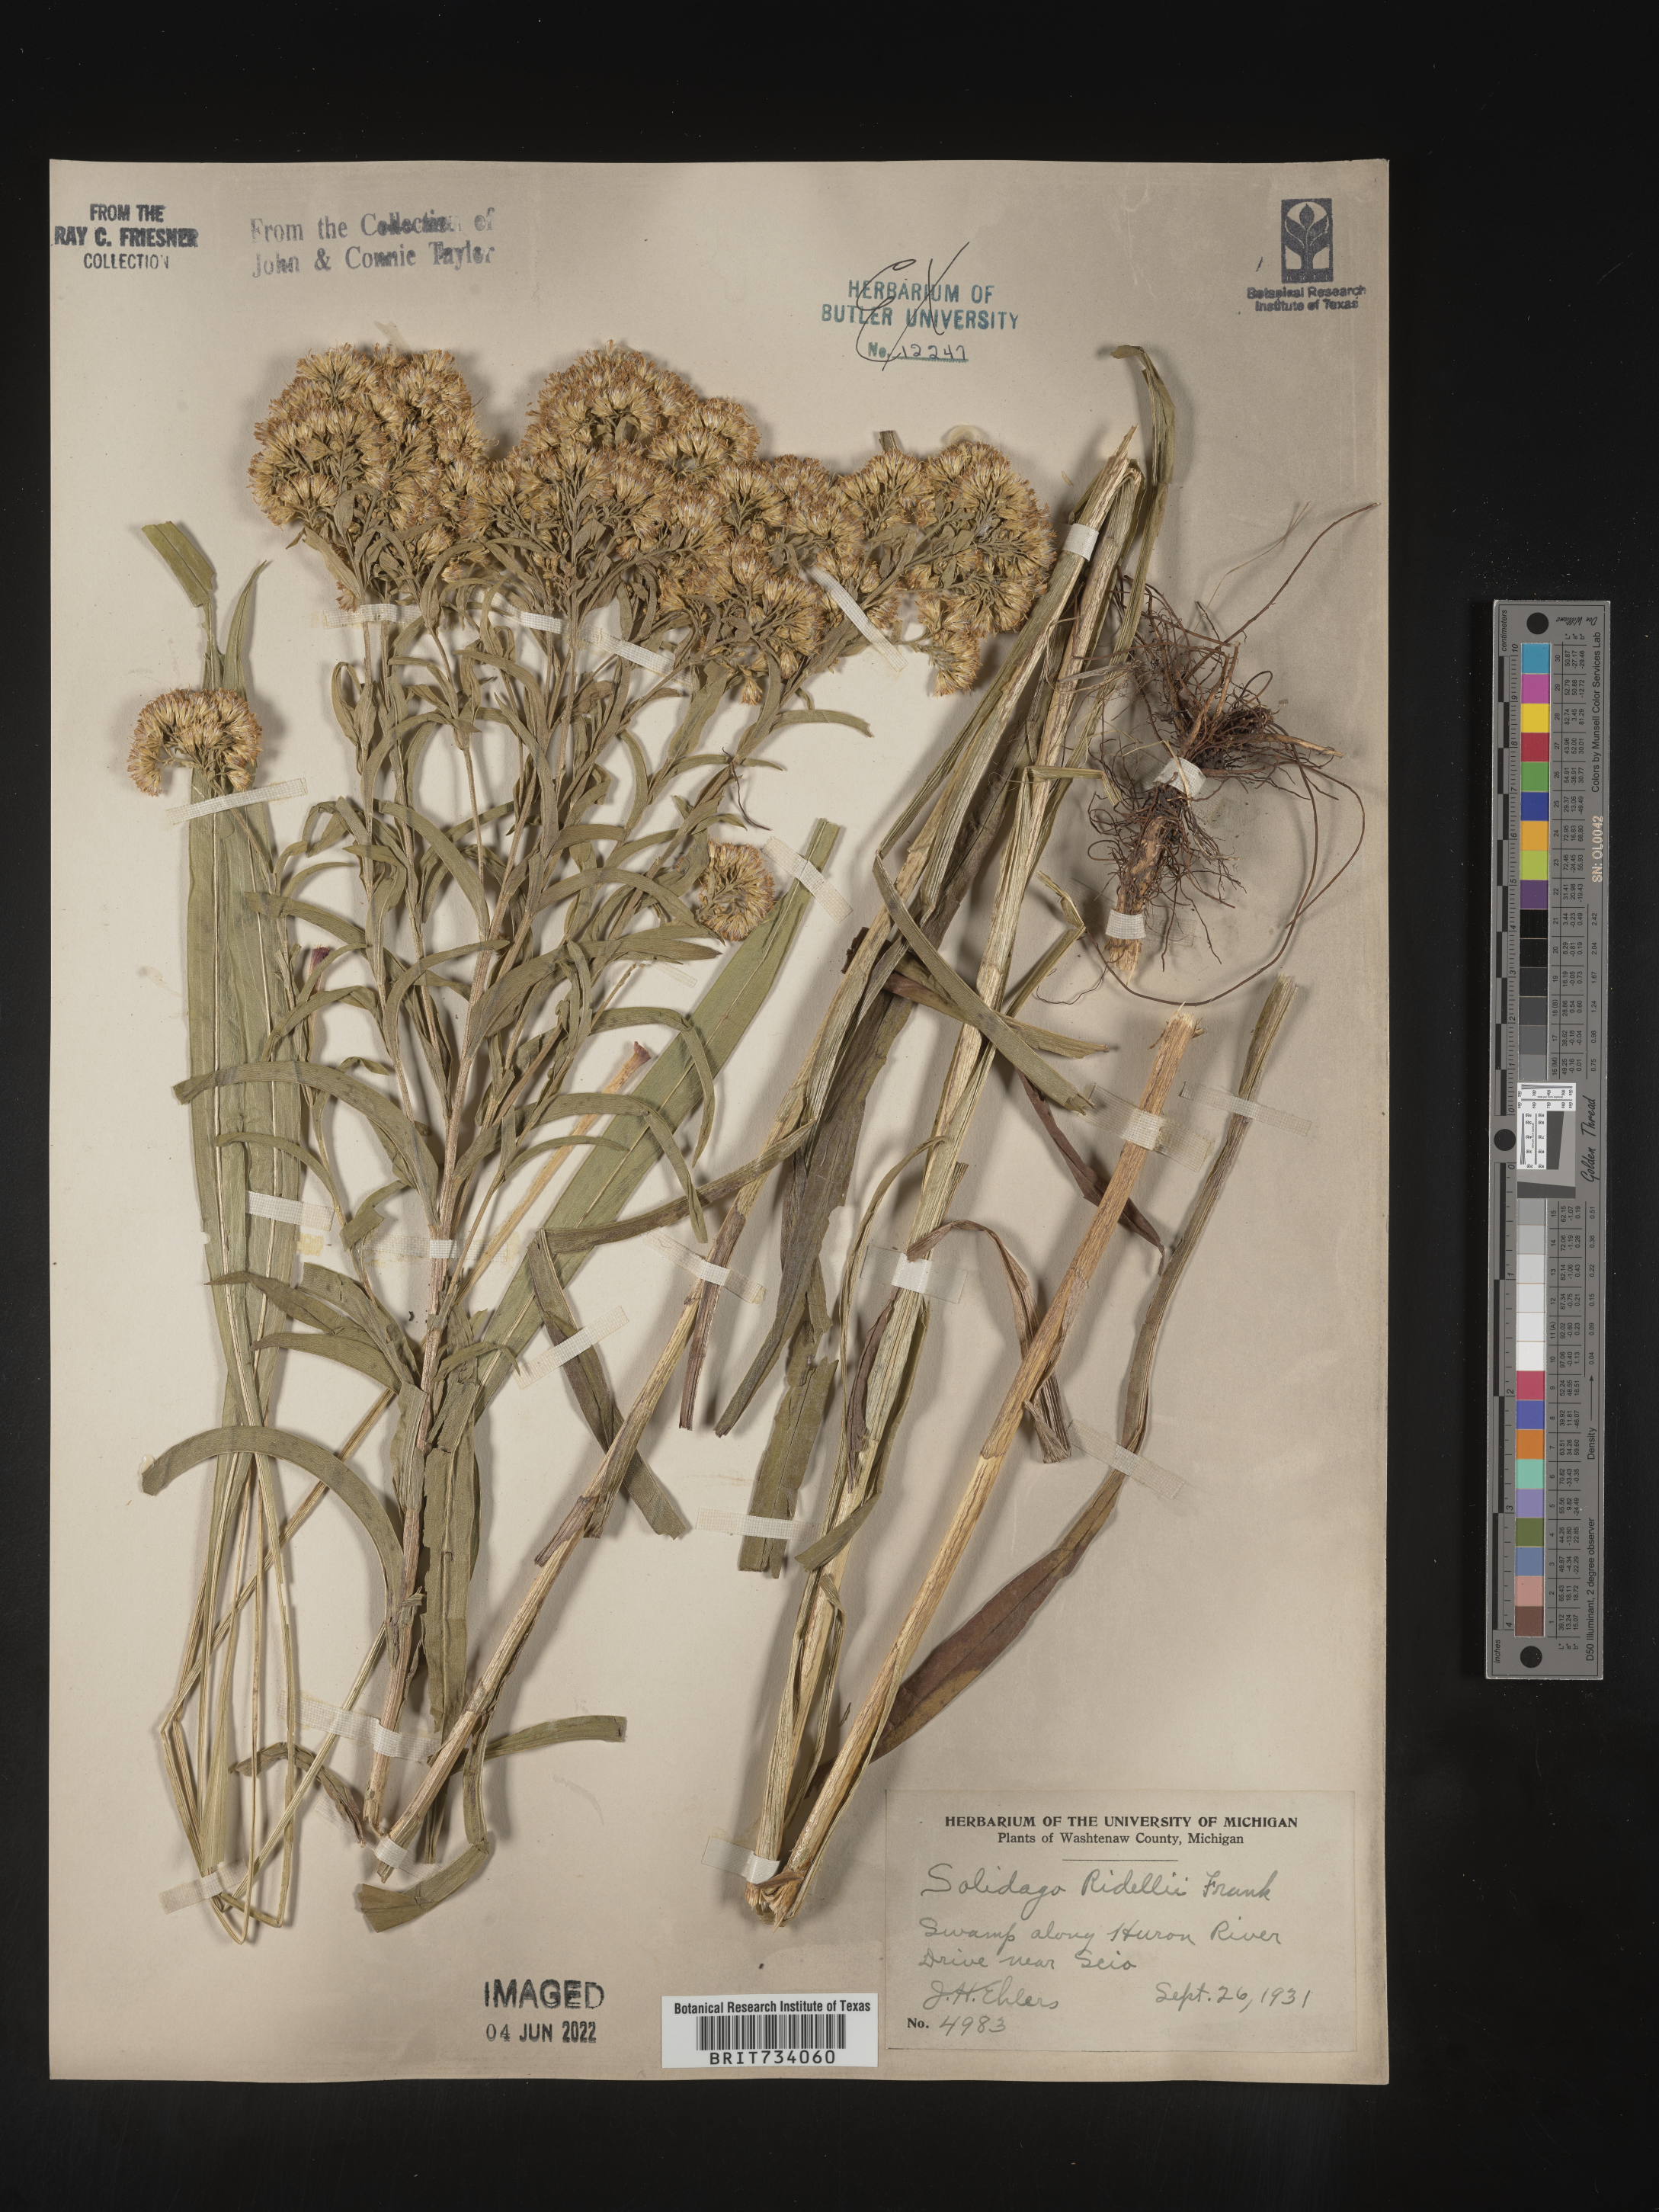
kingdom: Plantae
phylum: Tracheophyta
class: Magnoliopsida
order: Asterales
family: Asteraceae
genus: Solidago
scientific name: Solidago riddellii
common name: Riddell's goldenrod
